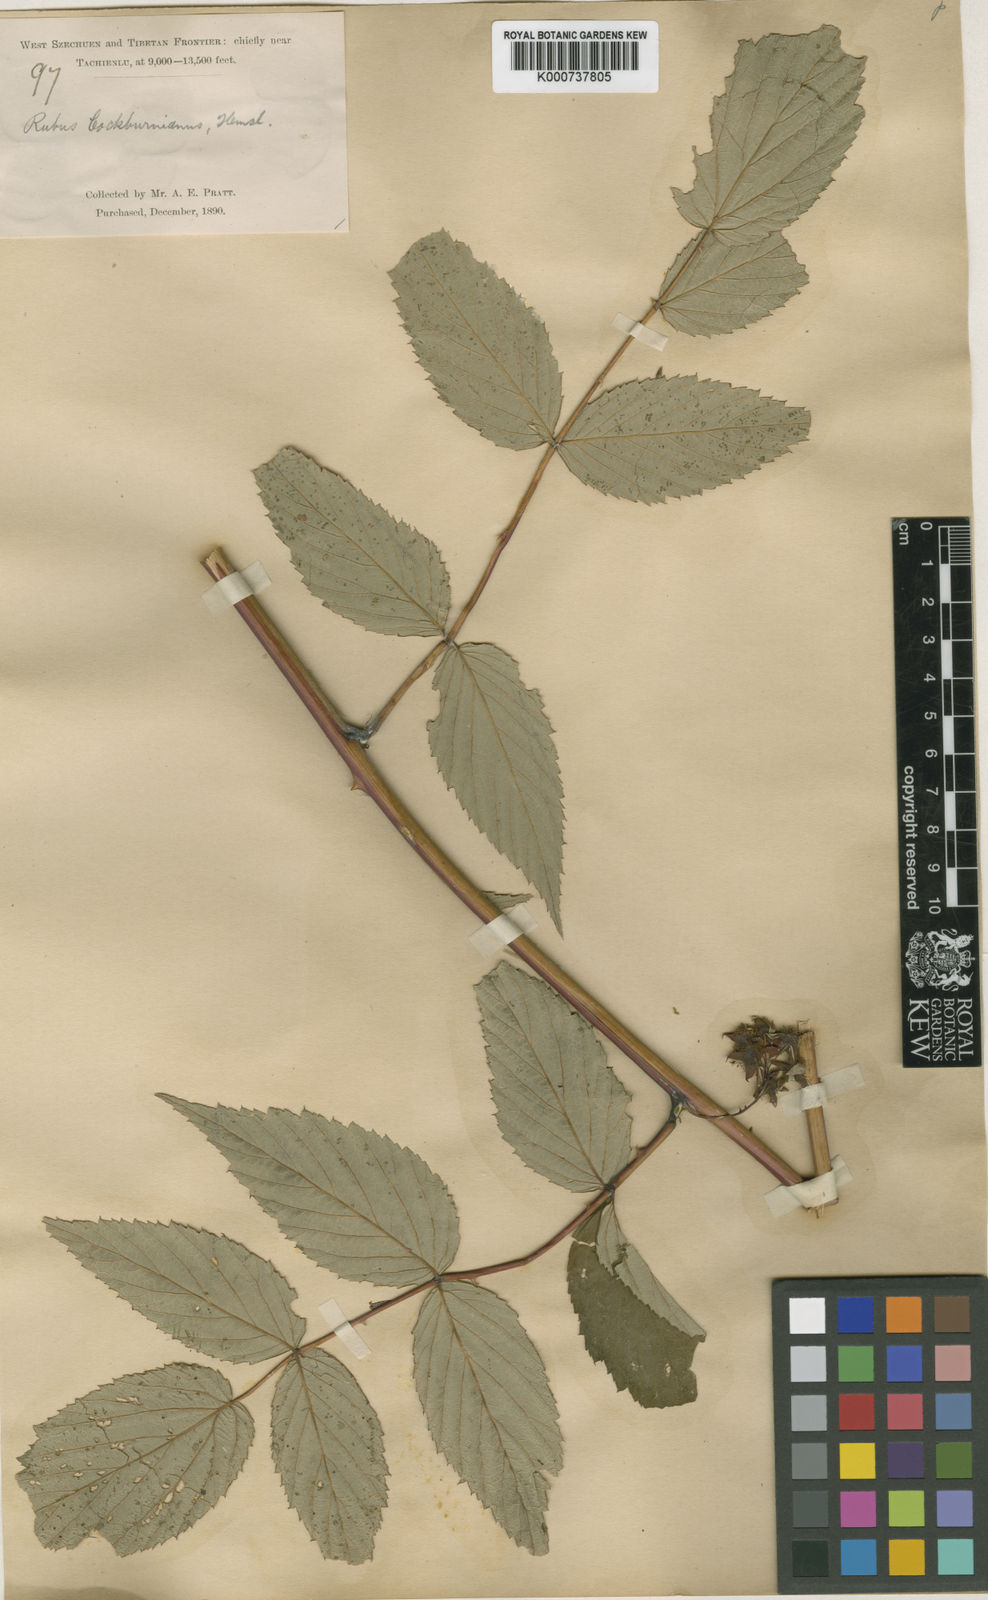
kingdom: Plantae
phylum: Tracheophyta
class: Magnoliopsida
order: Rosales
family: Rosaceae
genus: Rubus
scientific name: Rubus cockburnianus
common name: White-stemmed bramble
